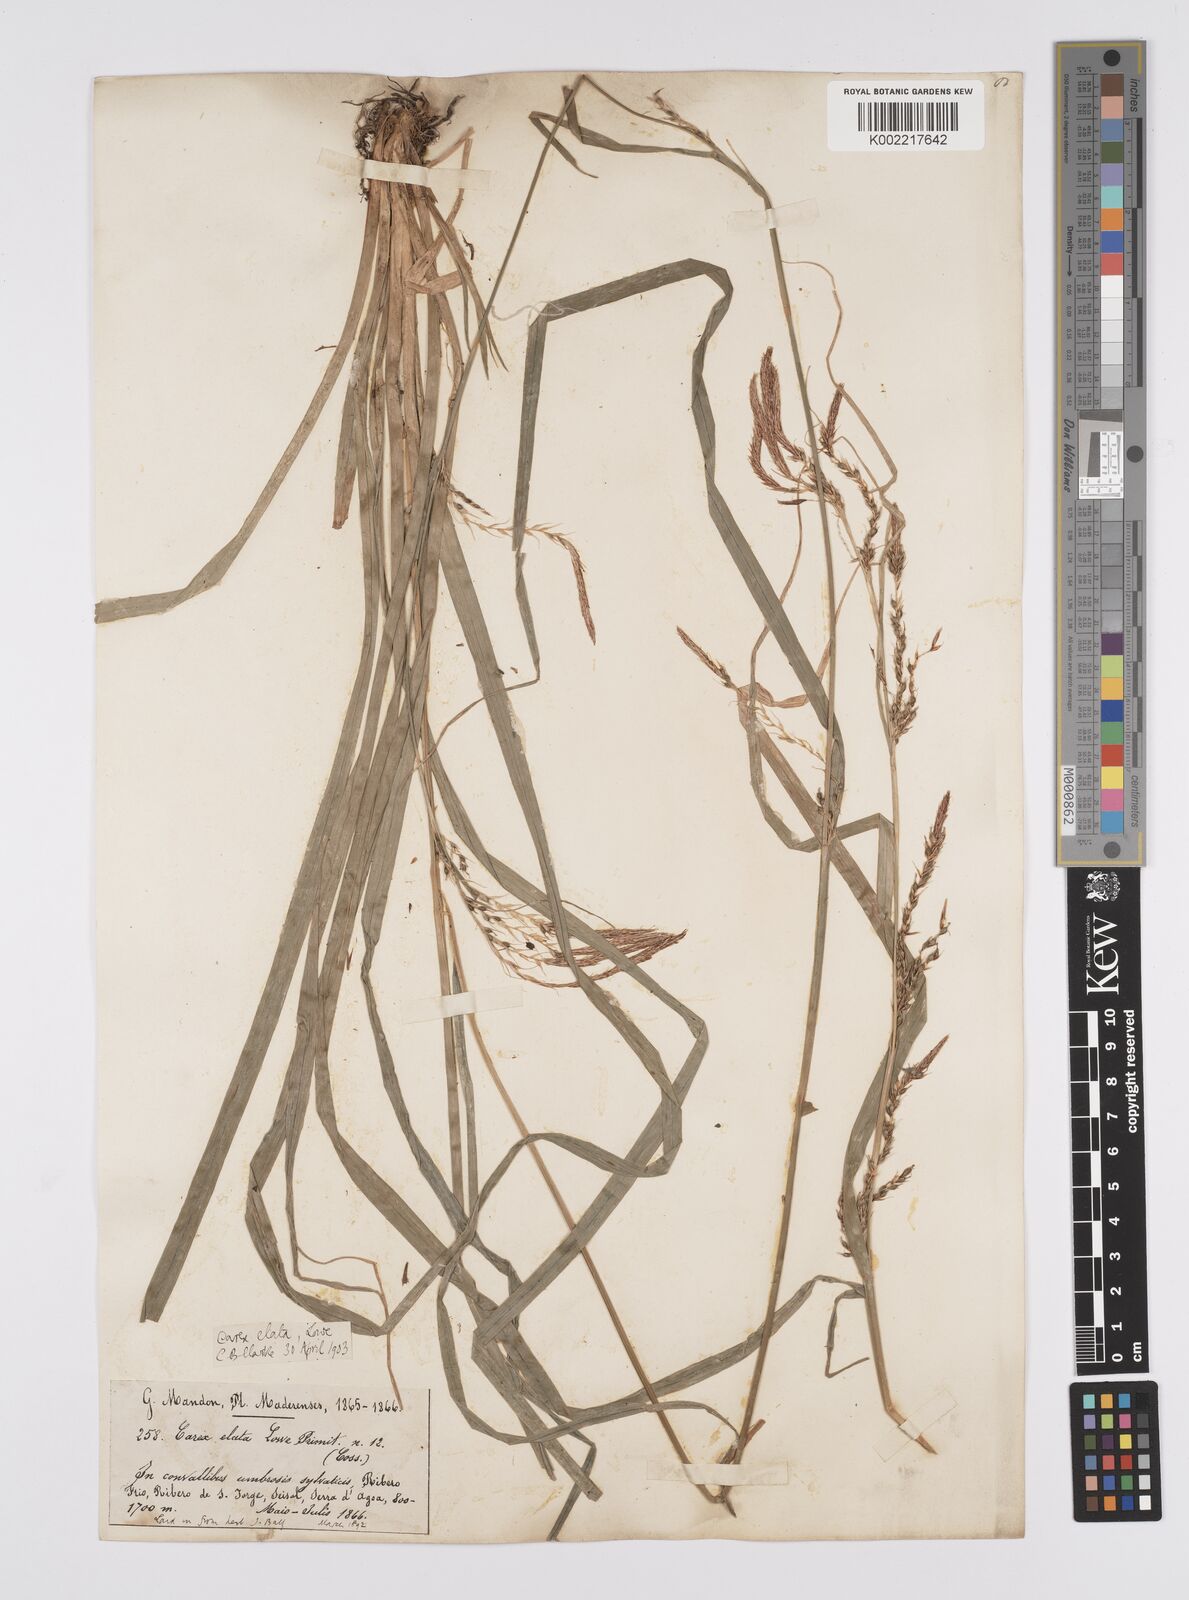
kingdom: Plantae
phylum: Tracheophyta
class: Liliopsida
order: Poales
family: Cyperaceae
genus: Carex
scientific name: Carex lowei
